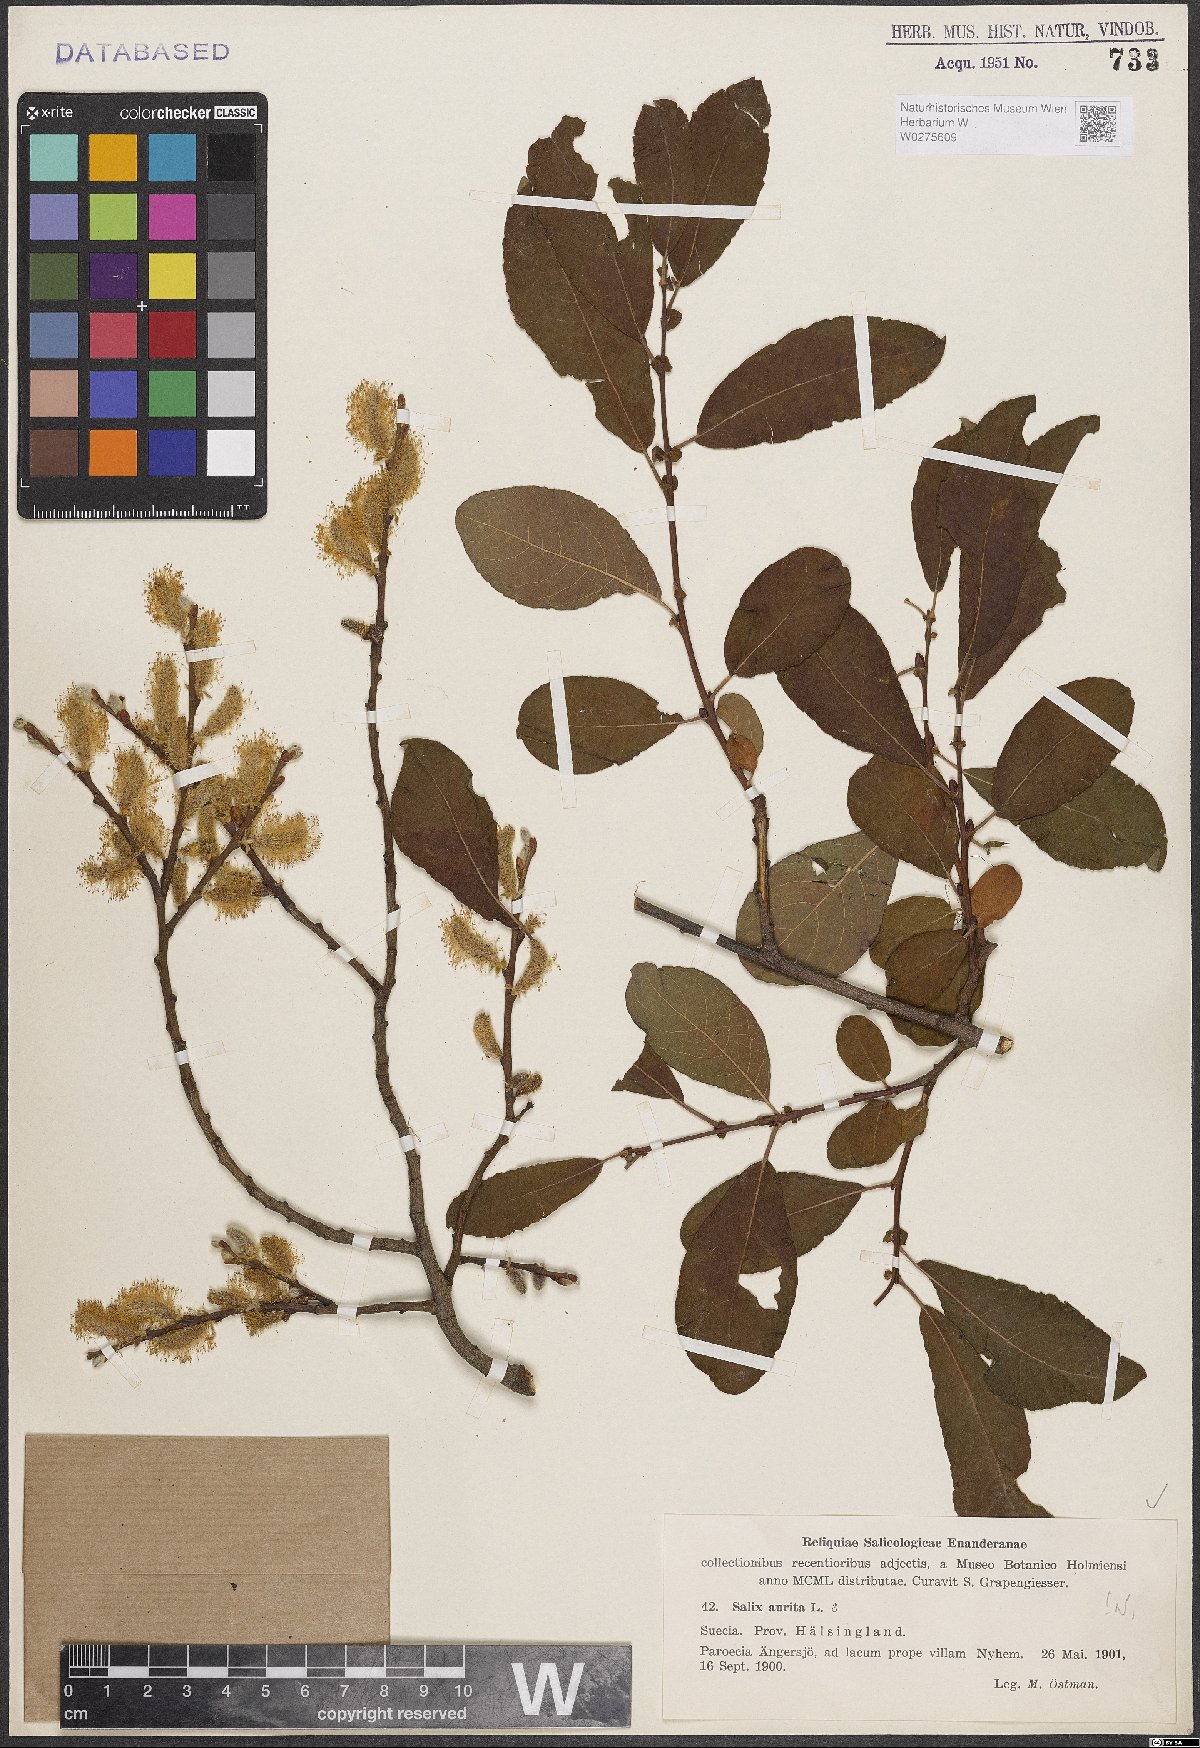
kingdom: Plantae
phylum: Tracheophyta
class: Magnoliopsida
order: Malpighiales
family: Salicaceae
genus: Salix
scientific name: Salix aurita
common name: Eared willow
